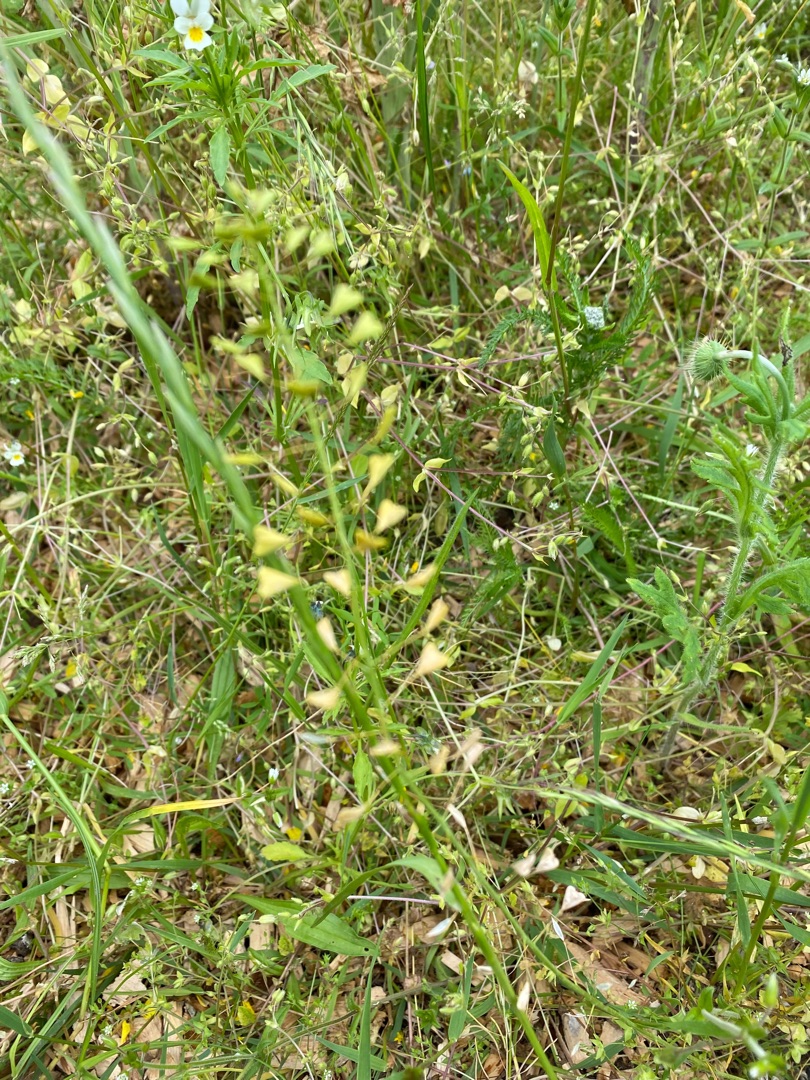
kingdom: Plantae
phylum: Tracheophyta
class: Magnoliopsida
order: Brassicales
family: Brassicaceae
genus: Capsella
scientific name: Capsella bursa-pastoris
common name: Hyrdetaske
